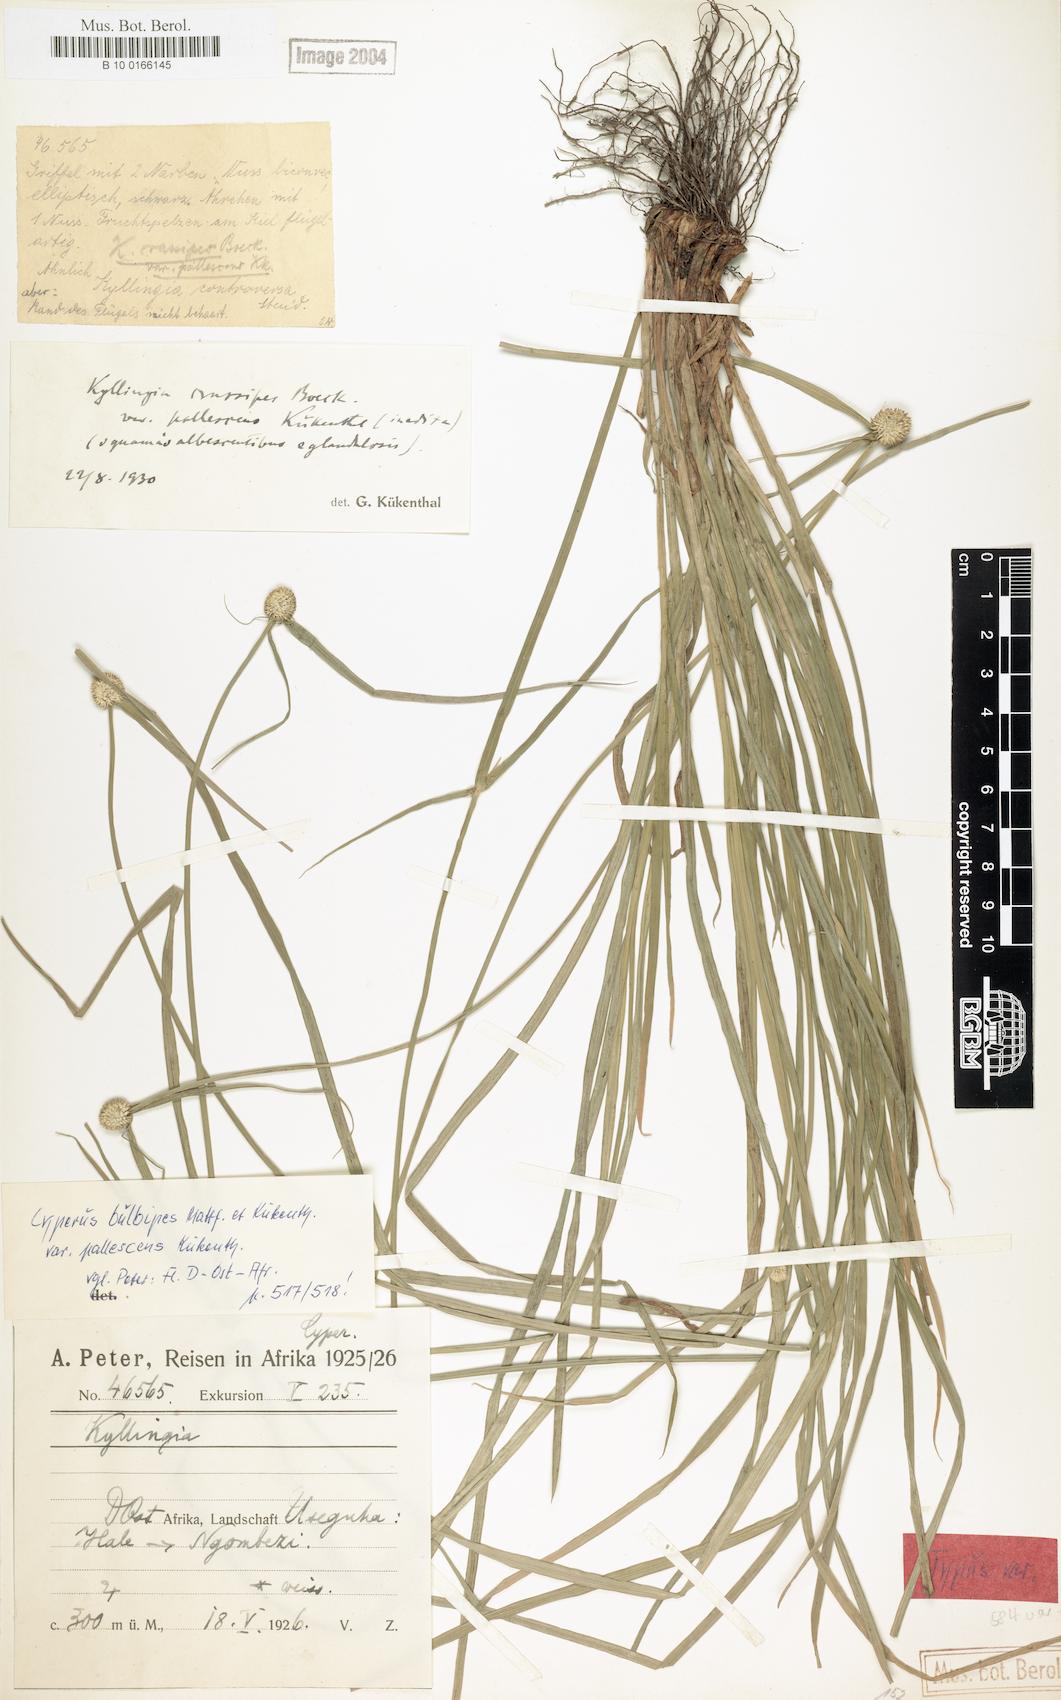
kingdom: Plantae
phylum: Tracheophyta
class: Liliopsida
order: Poales
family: Cyperaceae
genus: Cyperus
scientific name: Cyperus bulbipes
